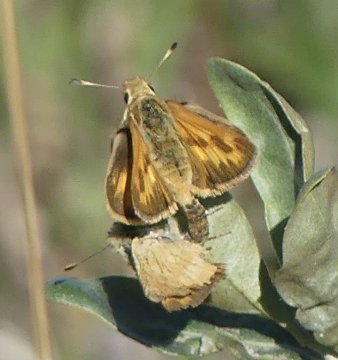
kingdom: Animalia
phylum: Arthropoda
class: Insecta
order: Lepidoptera
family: Hesperiidae
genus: Ochlodes
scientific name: Ochlodes sylvanoides
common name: Woodland Skipper
